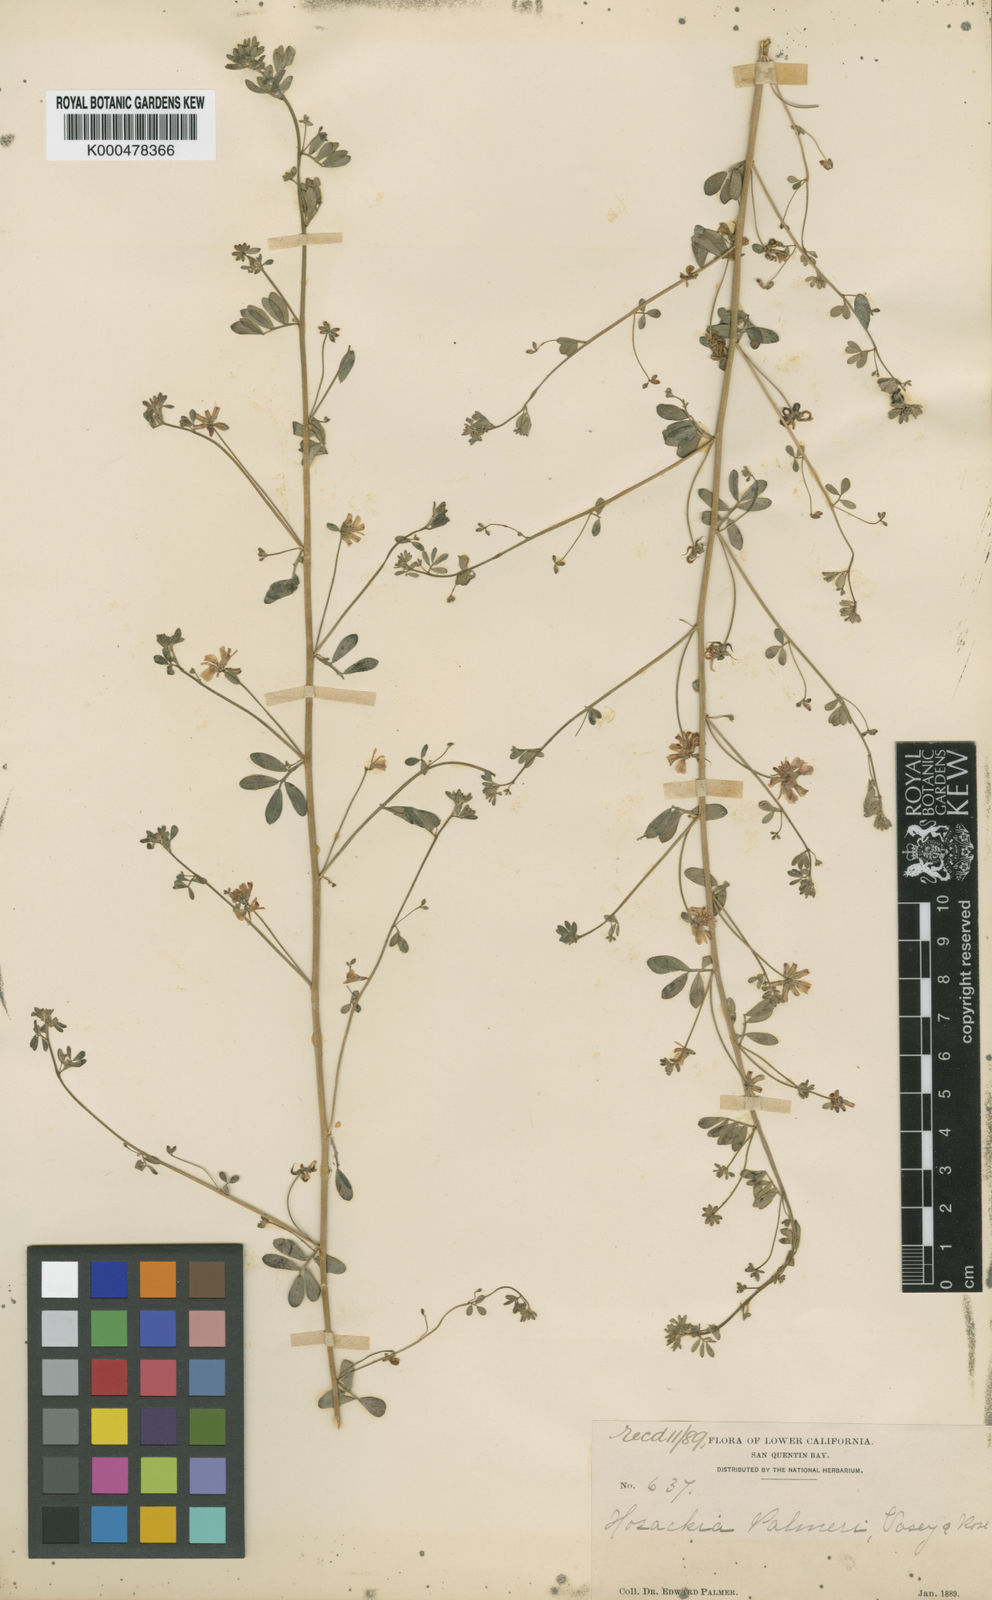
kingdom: Plantae
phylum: Tracheophyta
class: Magnoliopsida
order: Fabales
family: Fabaceae
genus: Lotus
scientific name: Lotus
